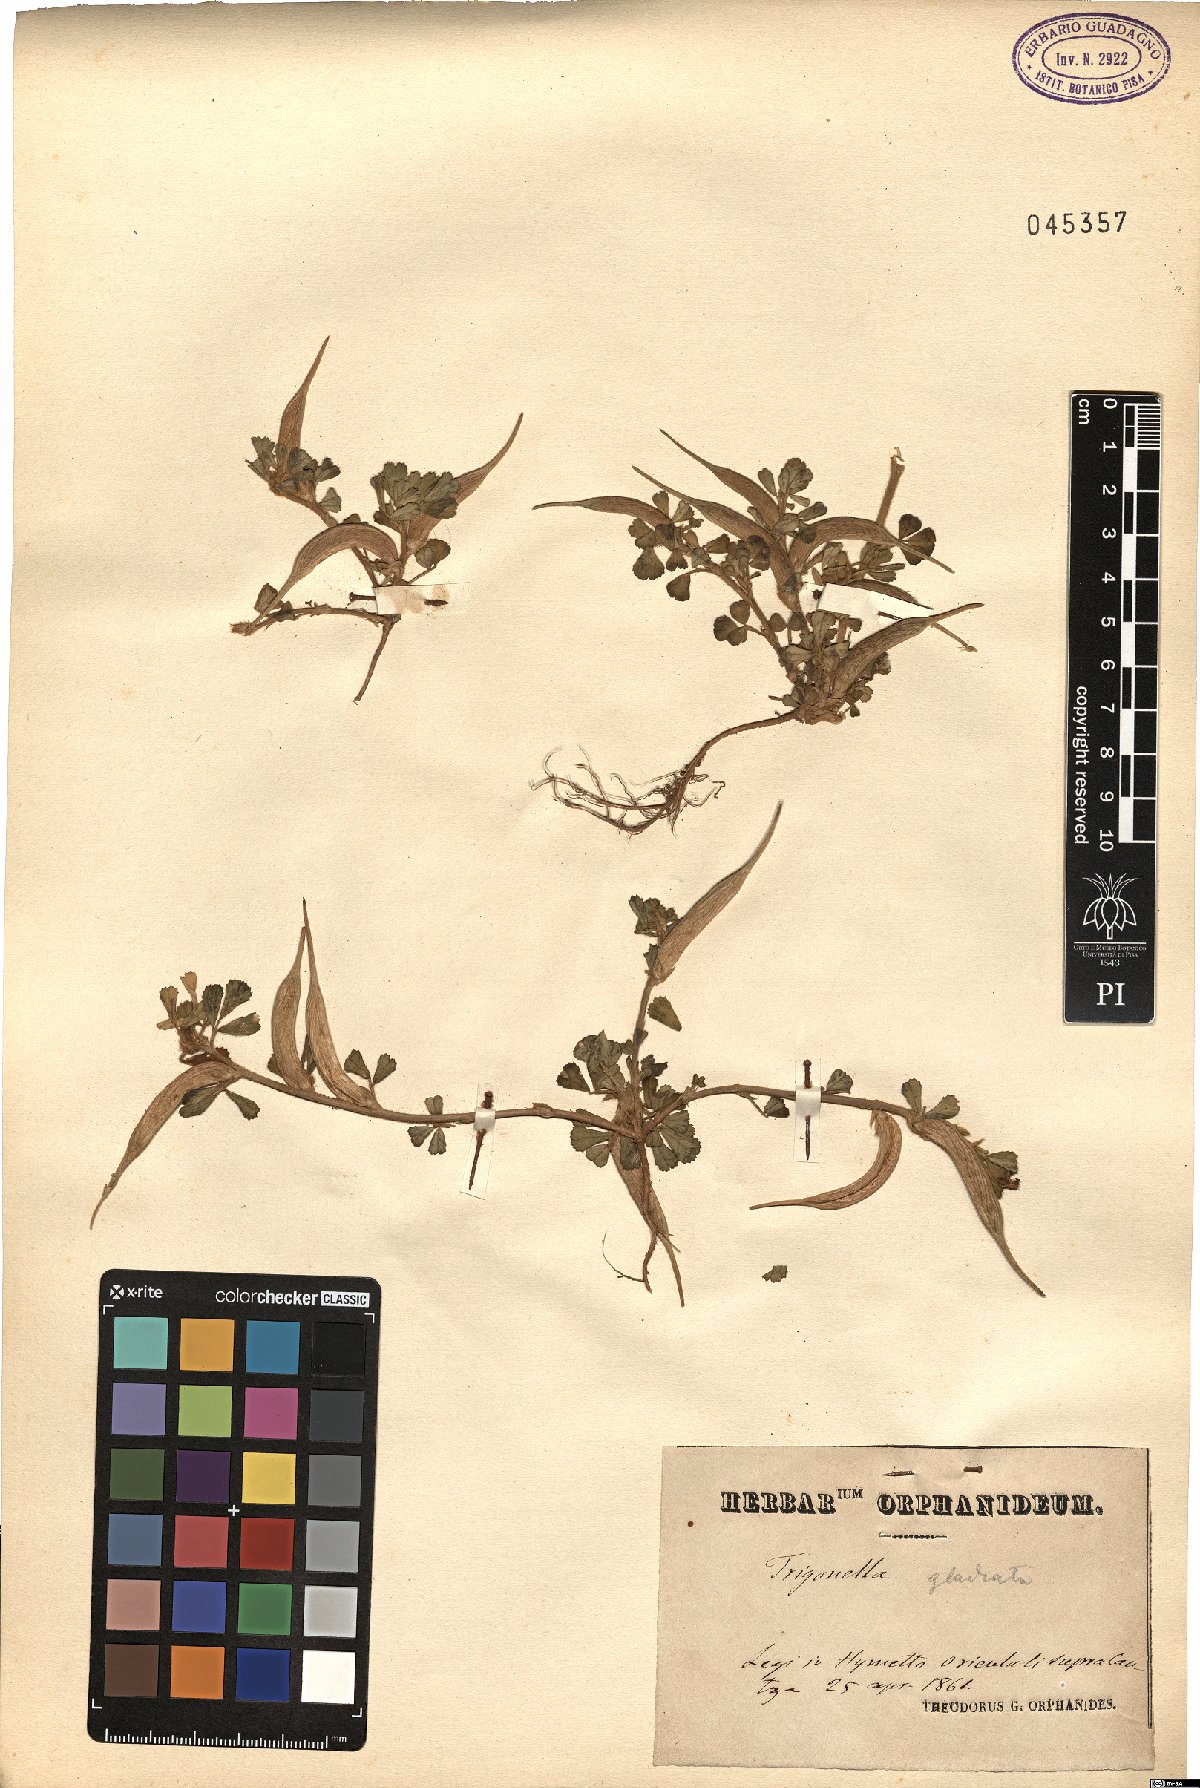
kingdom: Plantae
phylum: Tracheophyta
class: Magnoliopsida
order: Fabales
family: Fabaceae
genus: Trigonella
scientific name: Trigonella gladiata
